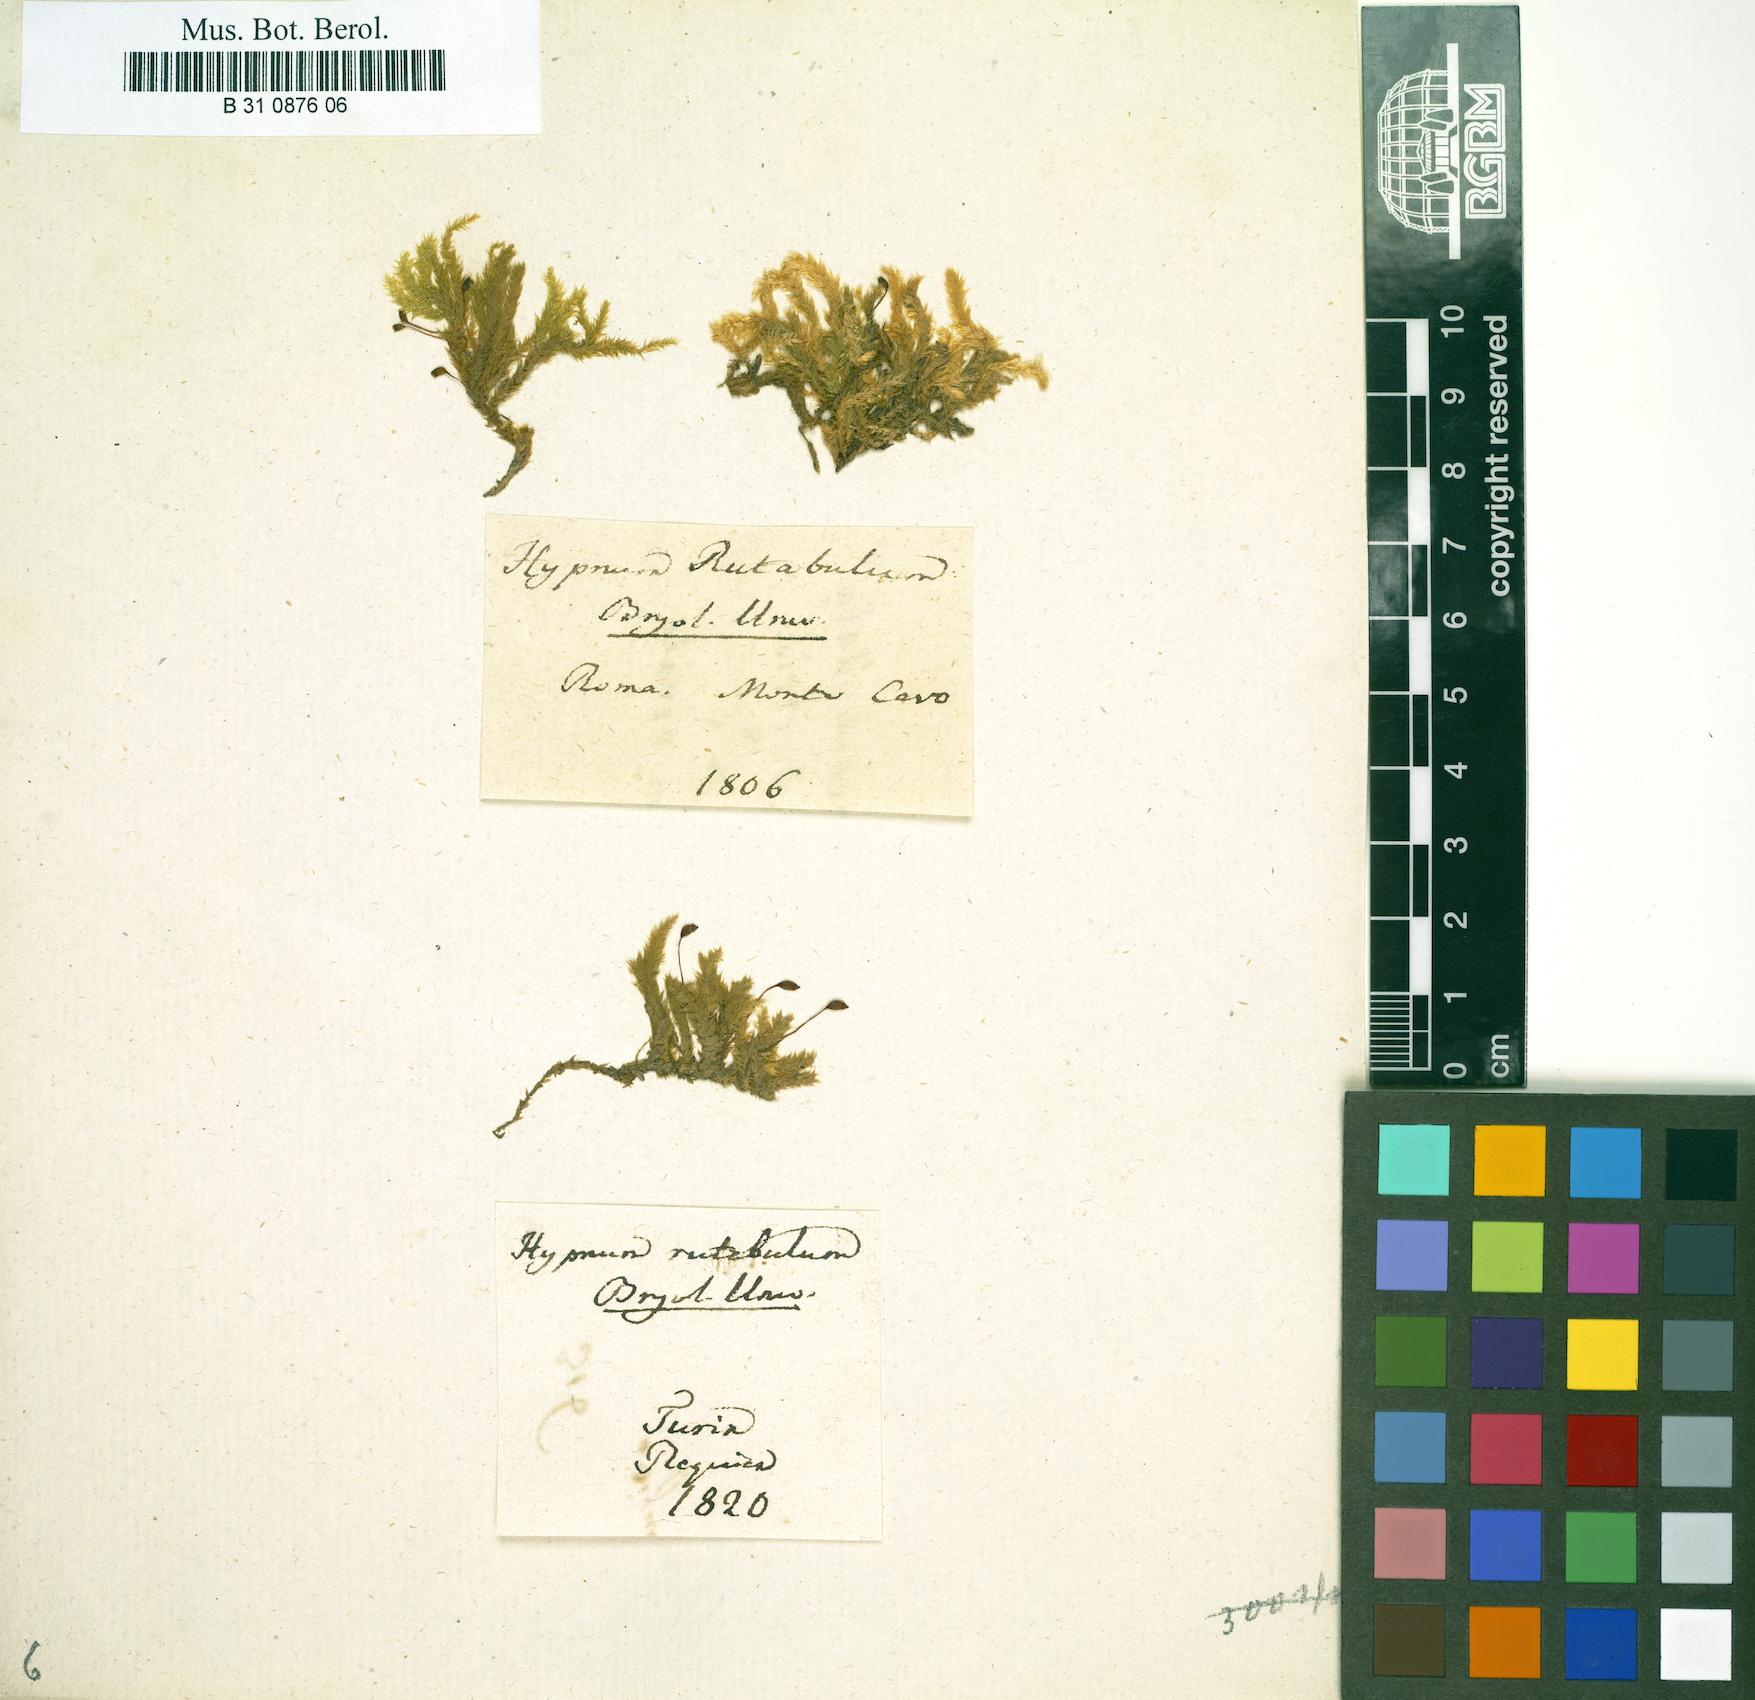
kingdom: Plantae
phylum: Bryophyta
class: Bryopsida
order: Hypnales
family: Brachytheciaceae
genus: Brachythecium
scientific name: Brachythecium rutabulum
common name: Rough-stalked feather-moss
